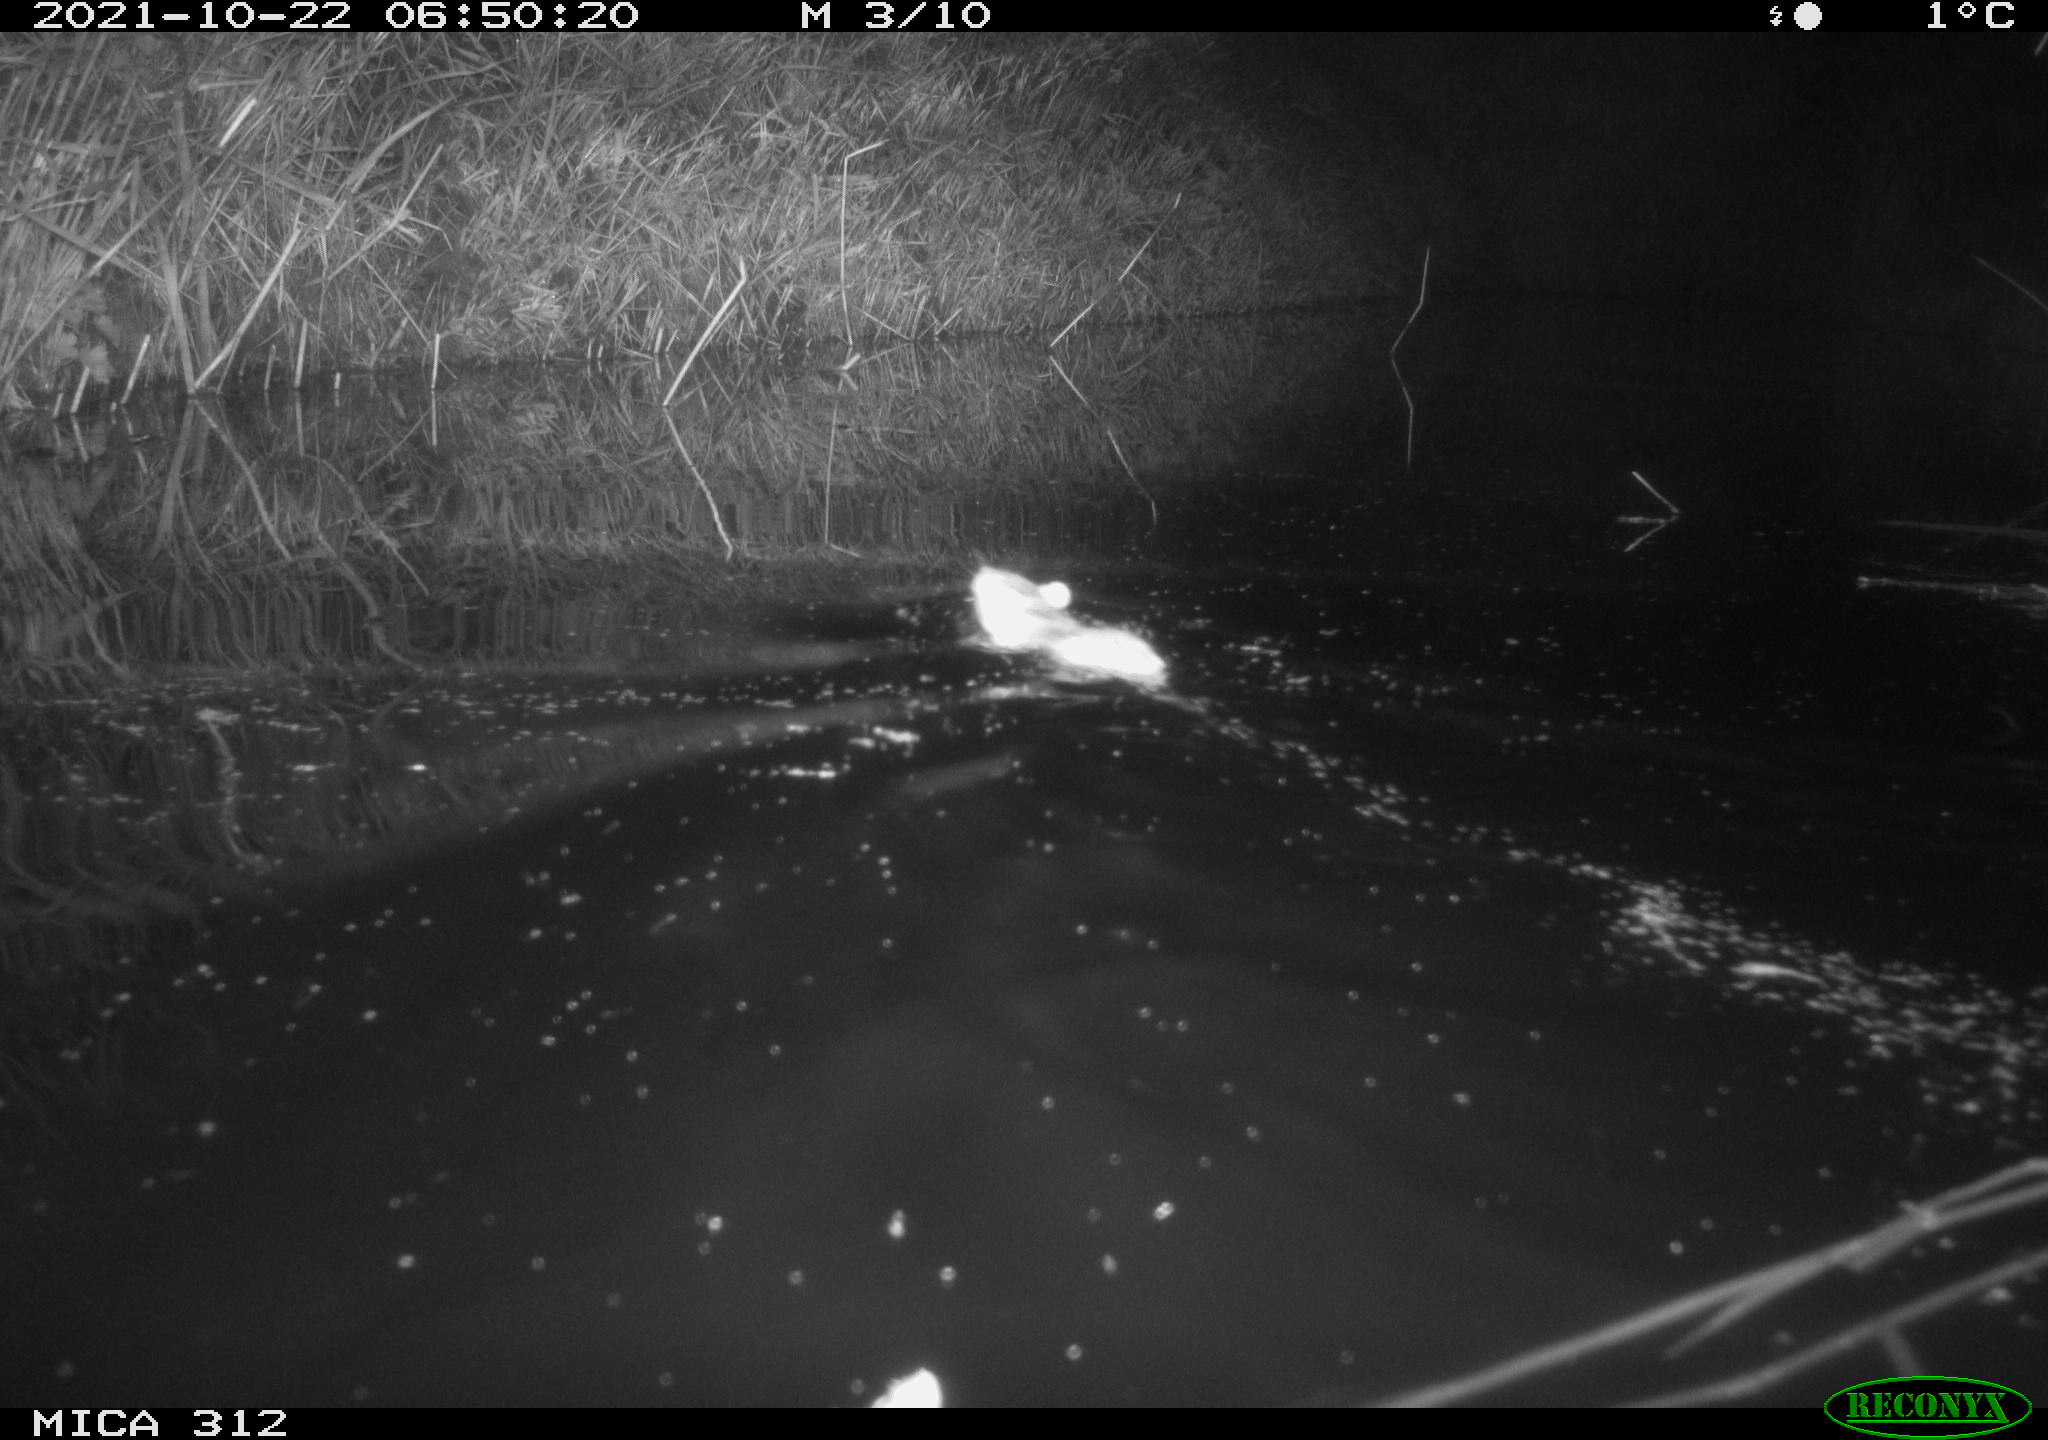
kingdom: Animalia
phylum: Chordata
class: Mammalia
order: Rodentia
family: Muridae
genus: Rattus
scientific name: Rattus norvegicus
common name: Brown rat
